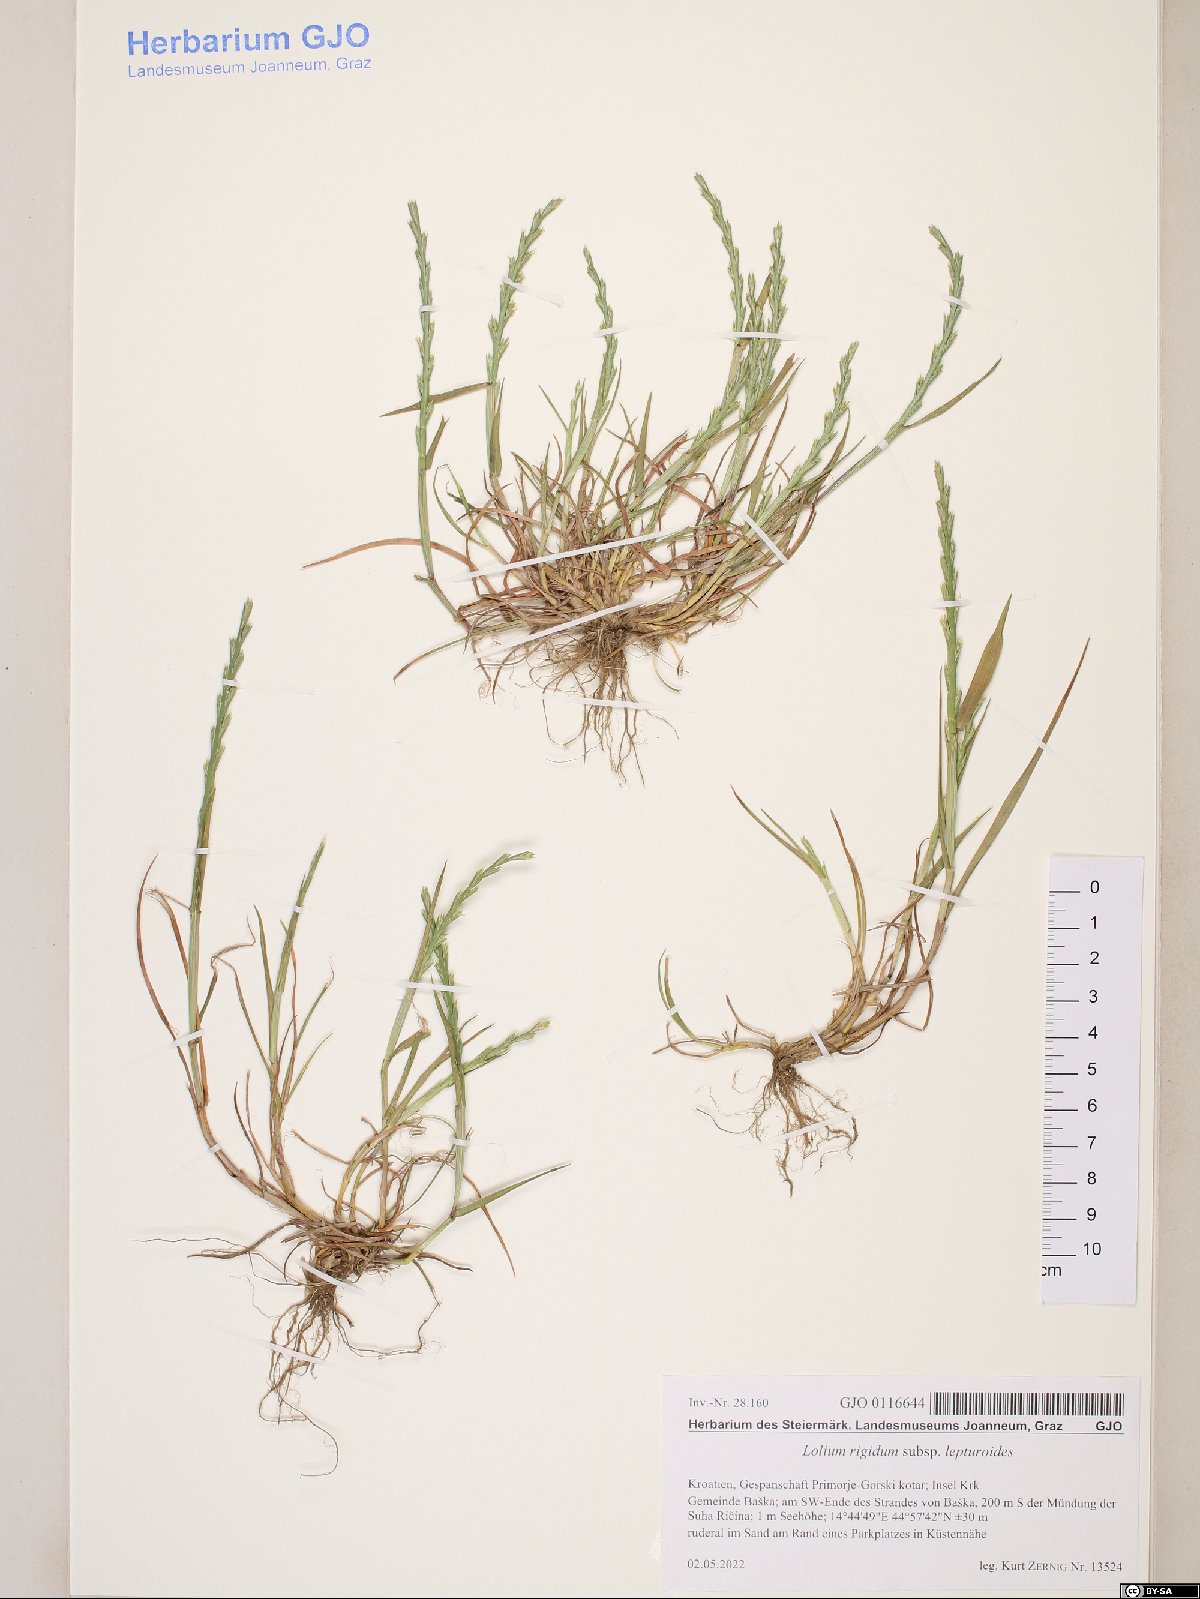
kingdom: Plantae
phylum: Tracheophyta
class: Liliopsida
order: Poales
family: Poaceae
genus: Lolium
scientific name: Lolium rigidum
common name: Wimmera ryegrass
